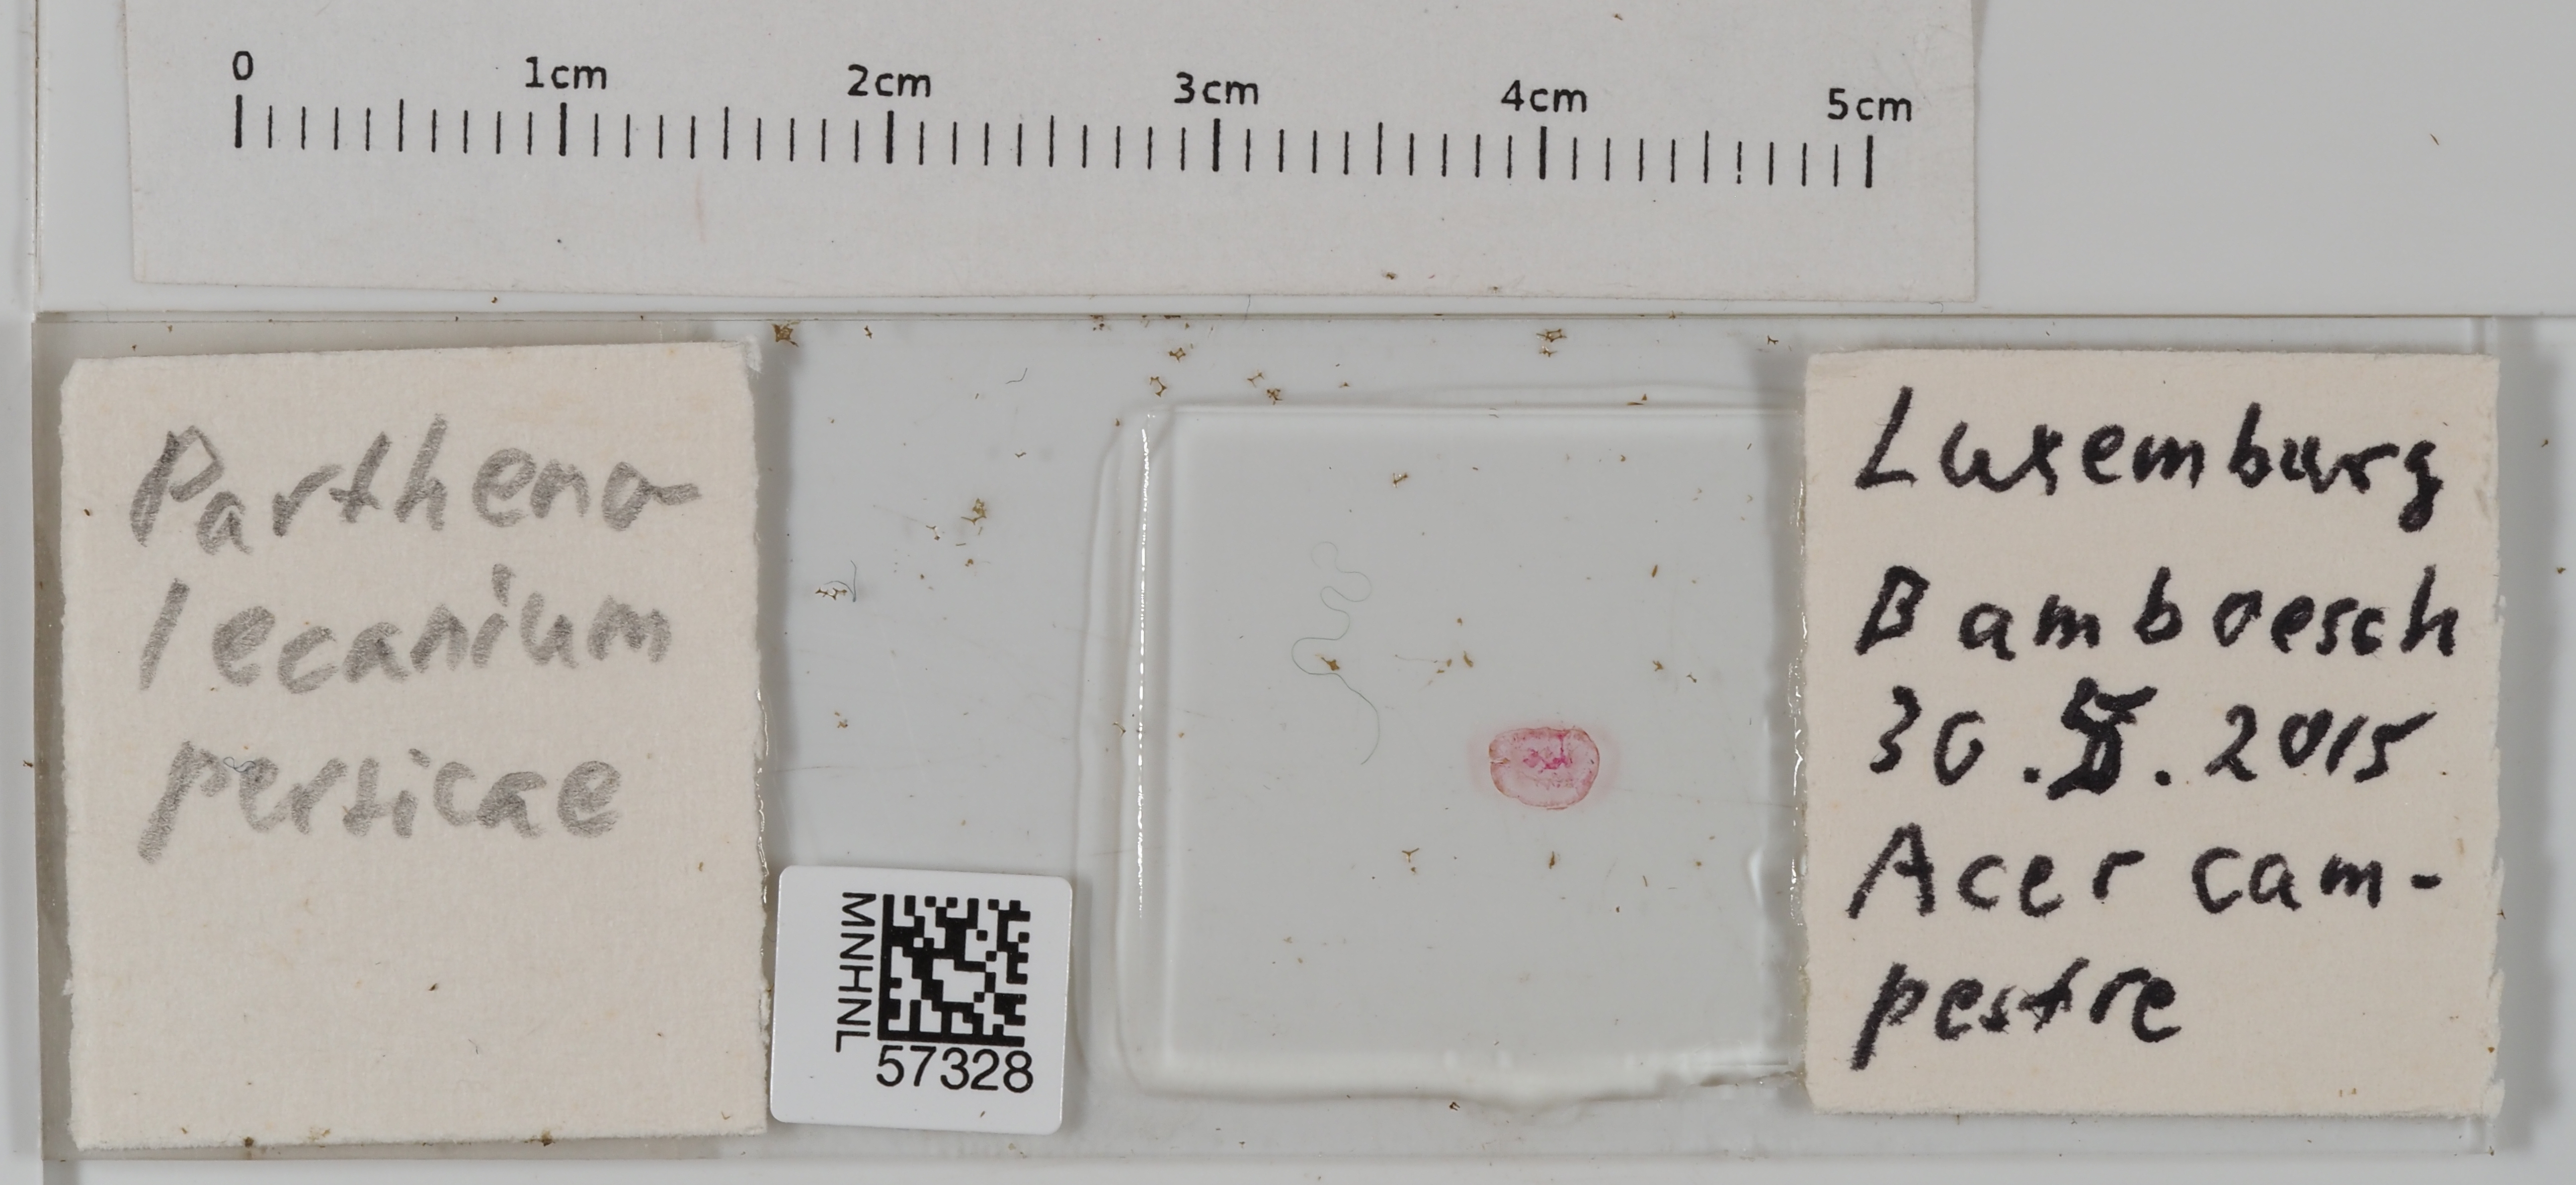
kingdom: Animalia
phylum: Arthropoda
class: Insecta
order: Hemiptera
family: Coccidae
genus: Parthenolecanium
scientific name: Parthenolecanium persicae
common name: Peach scale
